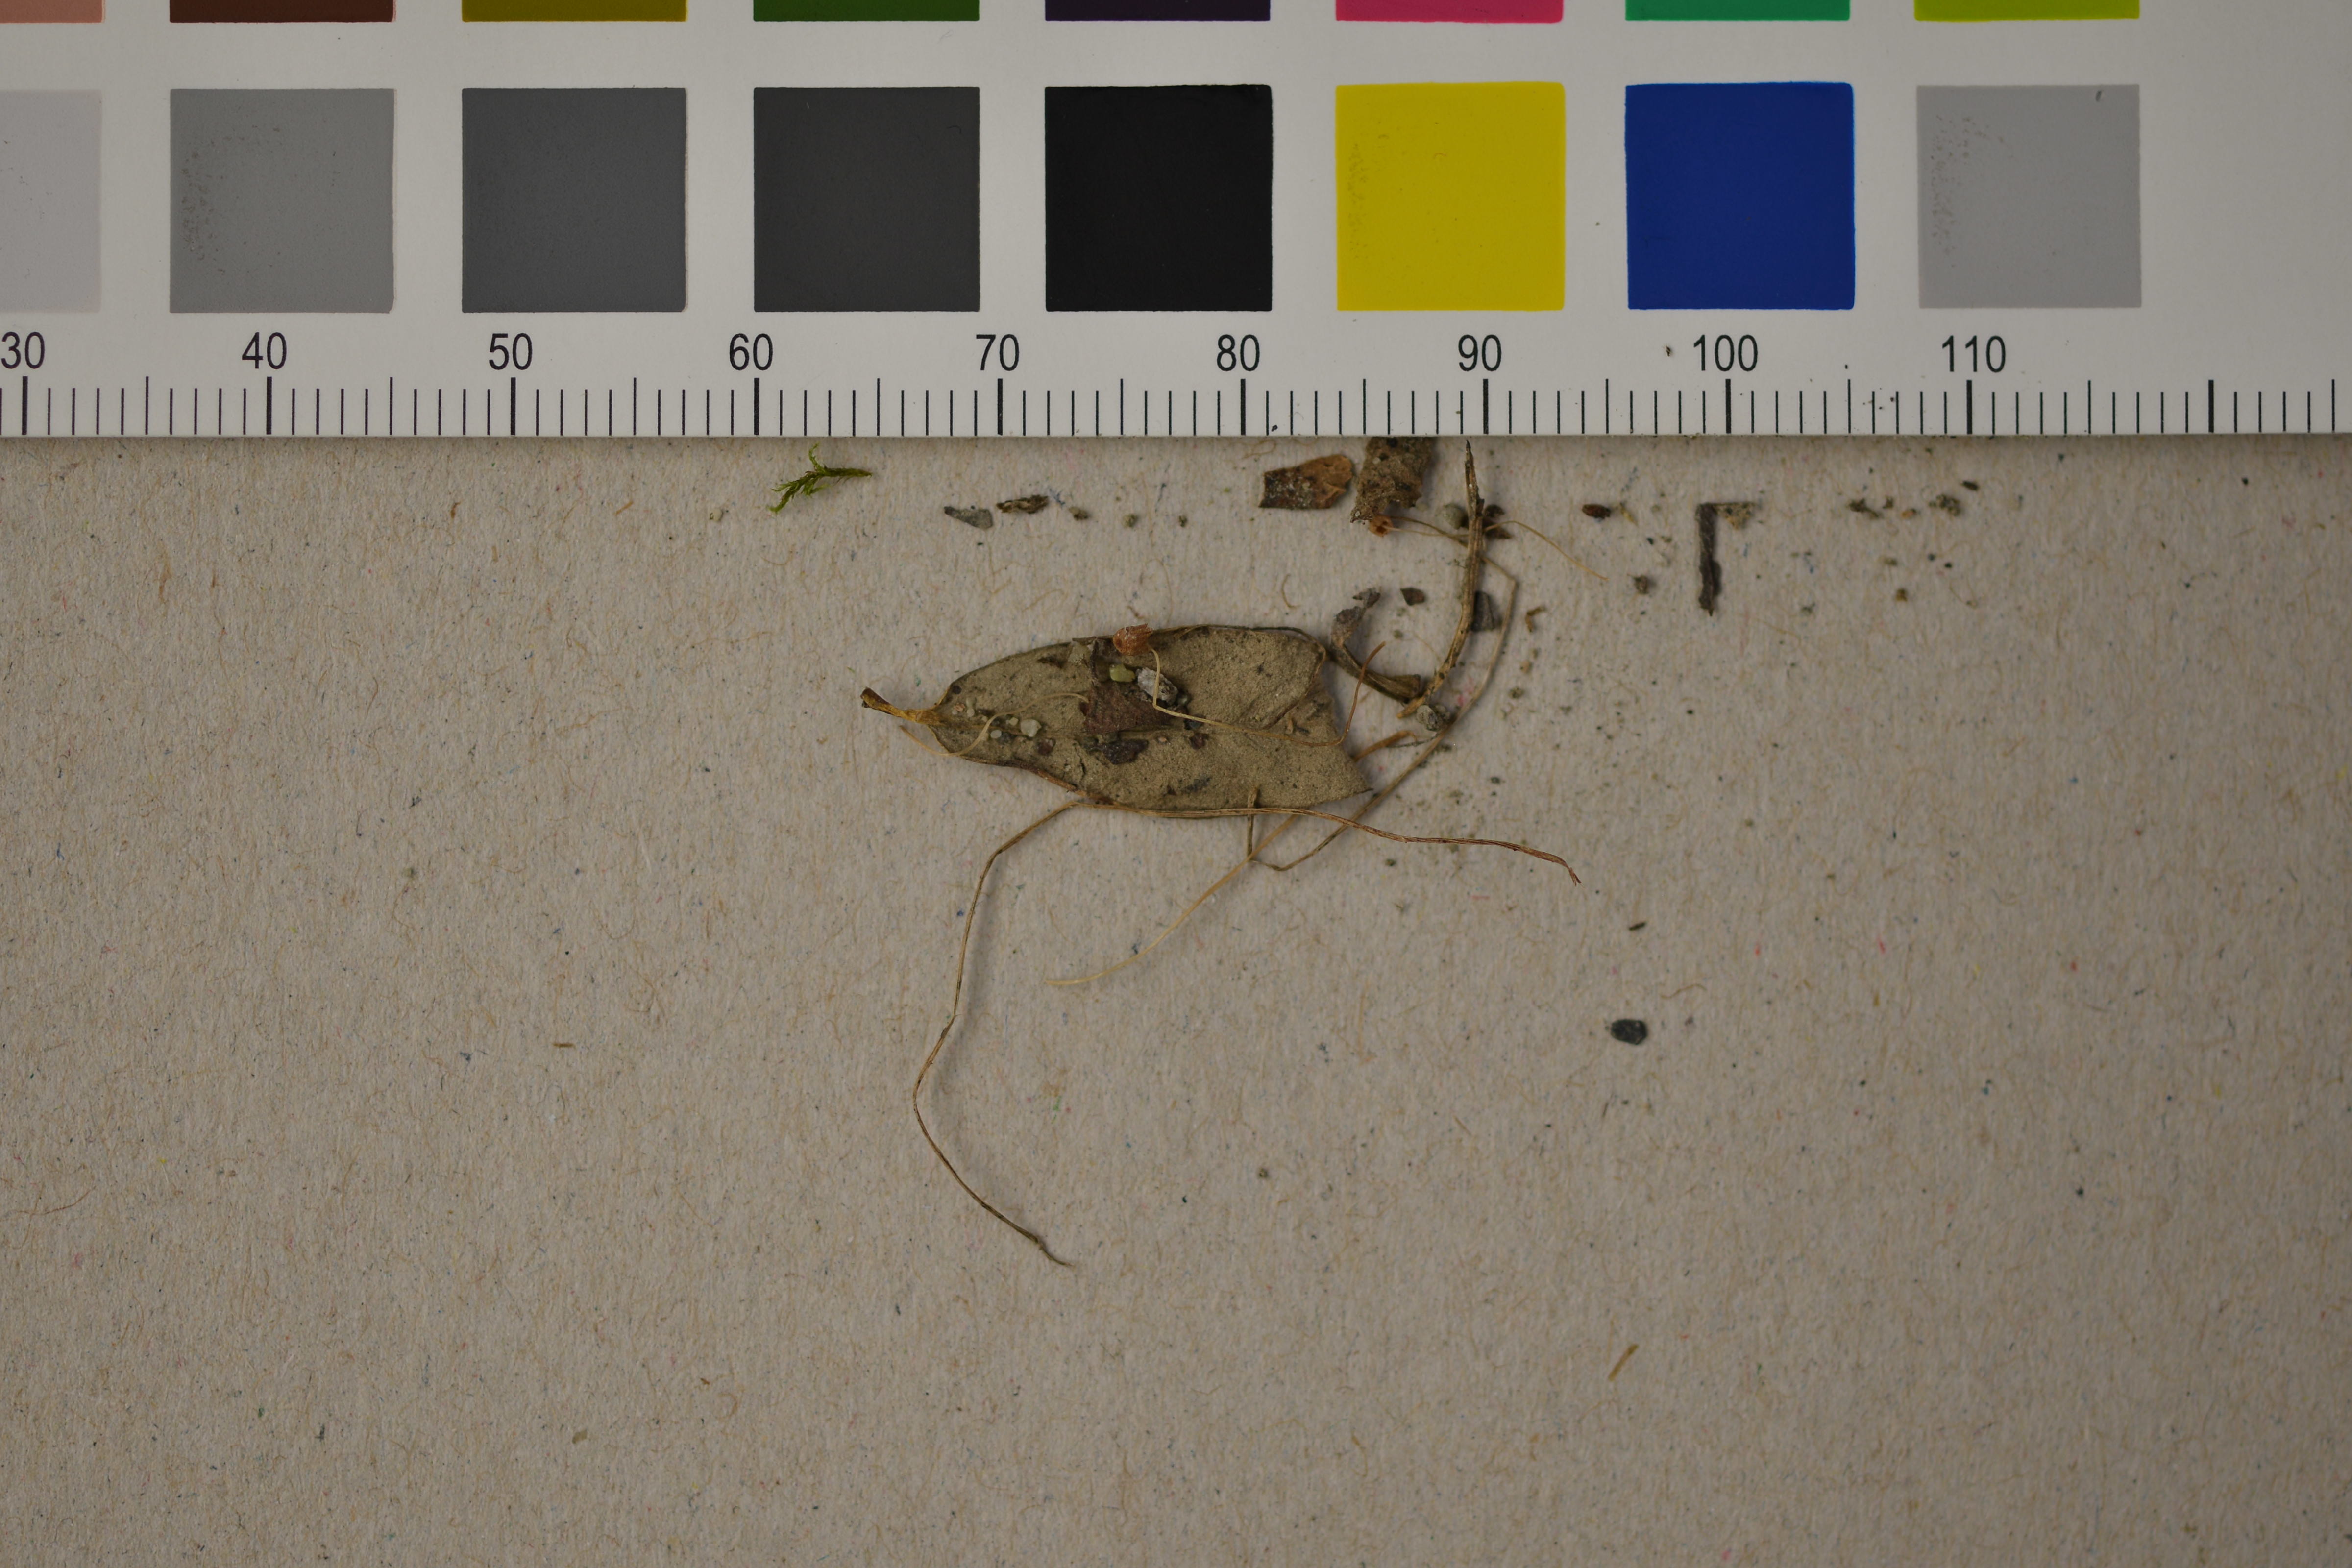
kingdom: Fungi
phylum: Basidiomycota
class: Agaricomycetes
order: Agaricales
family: Mycenaceae
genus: Mycena
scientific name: Mycena exilis
